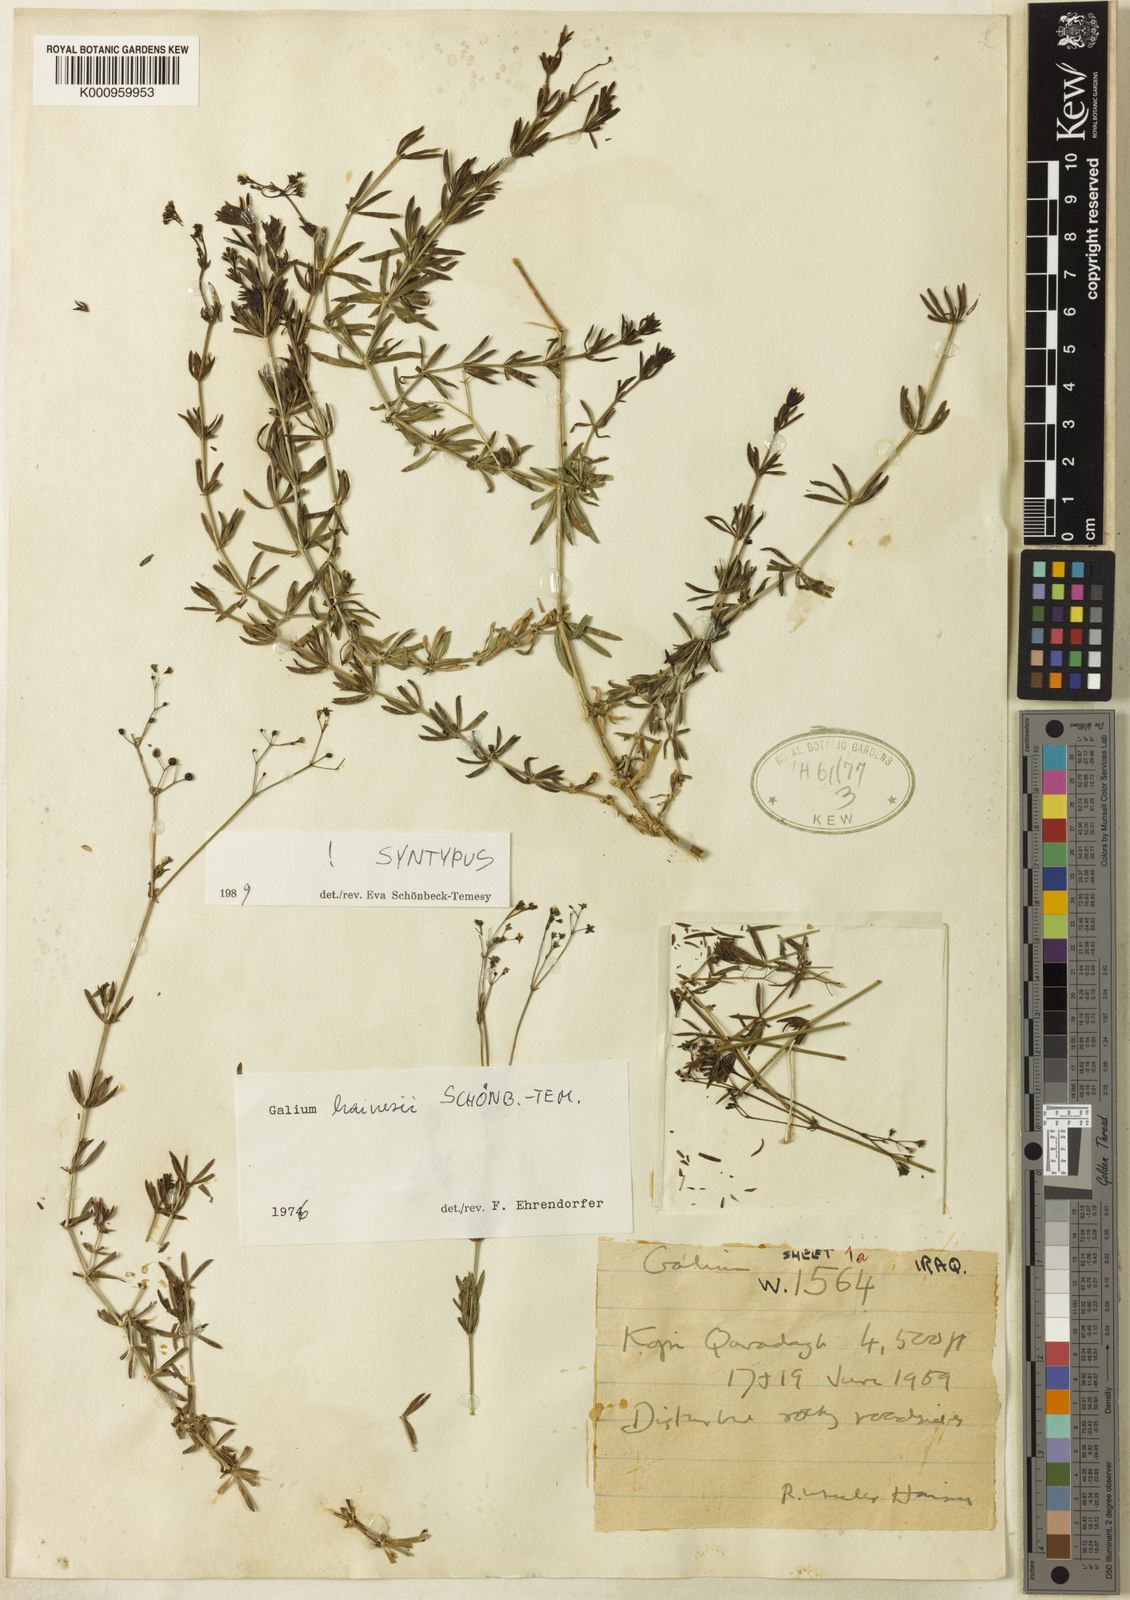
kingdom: Plantae
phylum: Tracheophyta
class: Magnoliopsida
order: Gentianales
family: Rubiaceae
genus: Galium
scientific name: Galium
